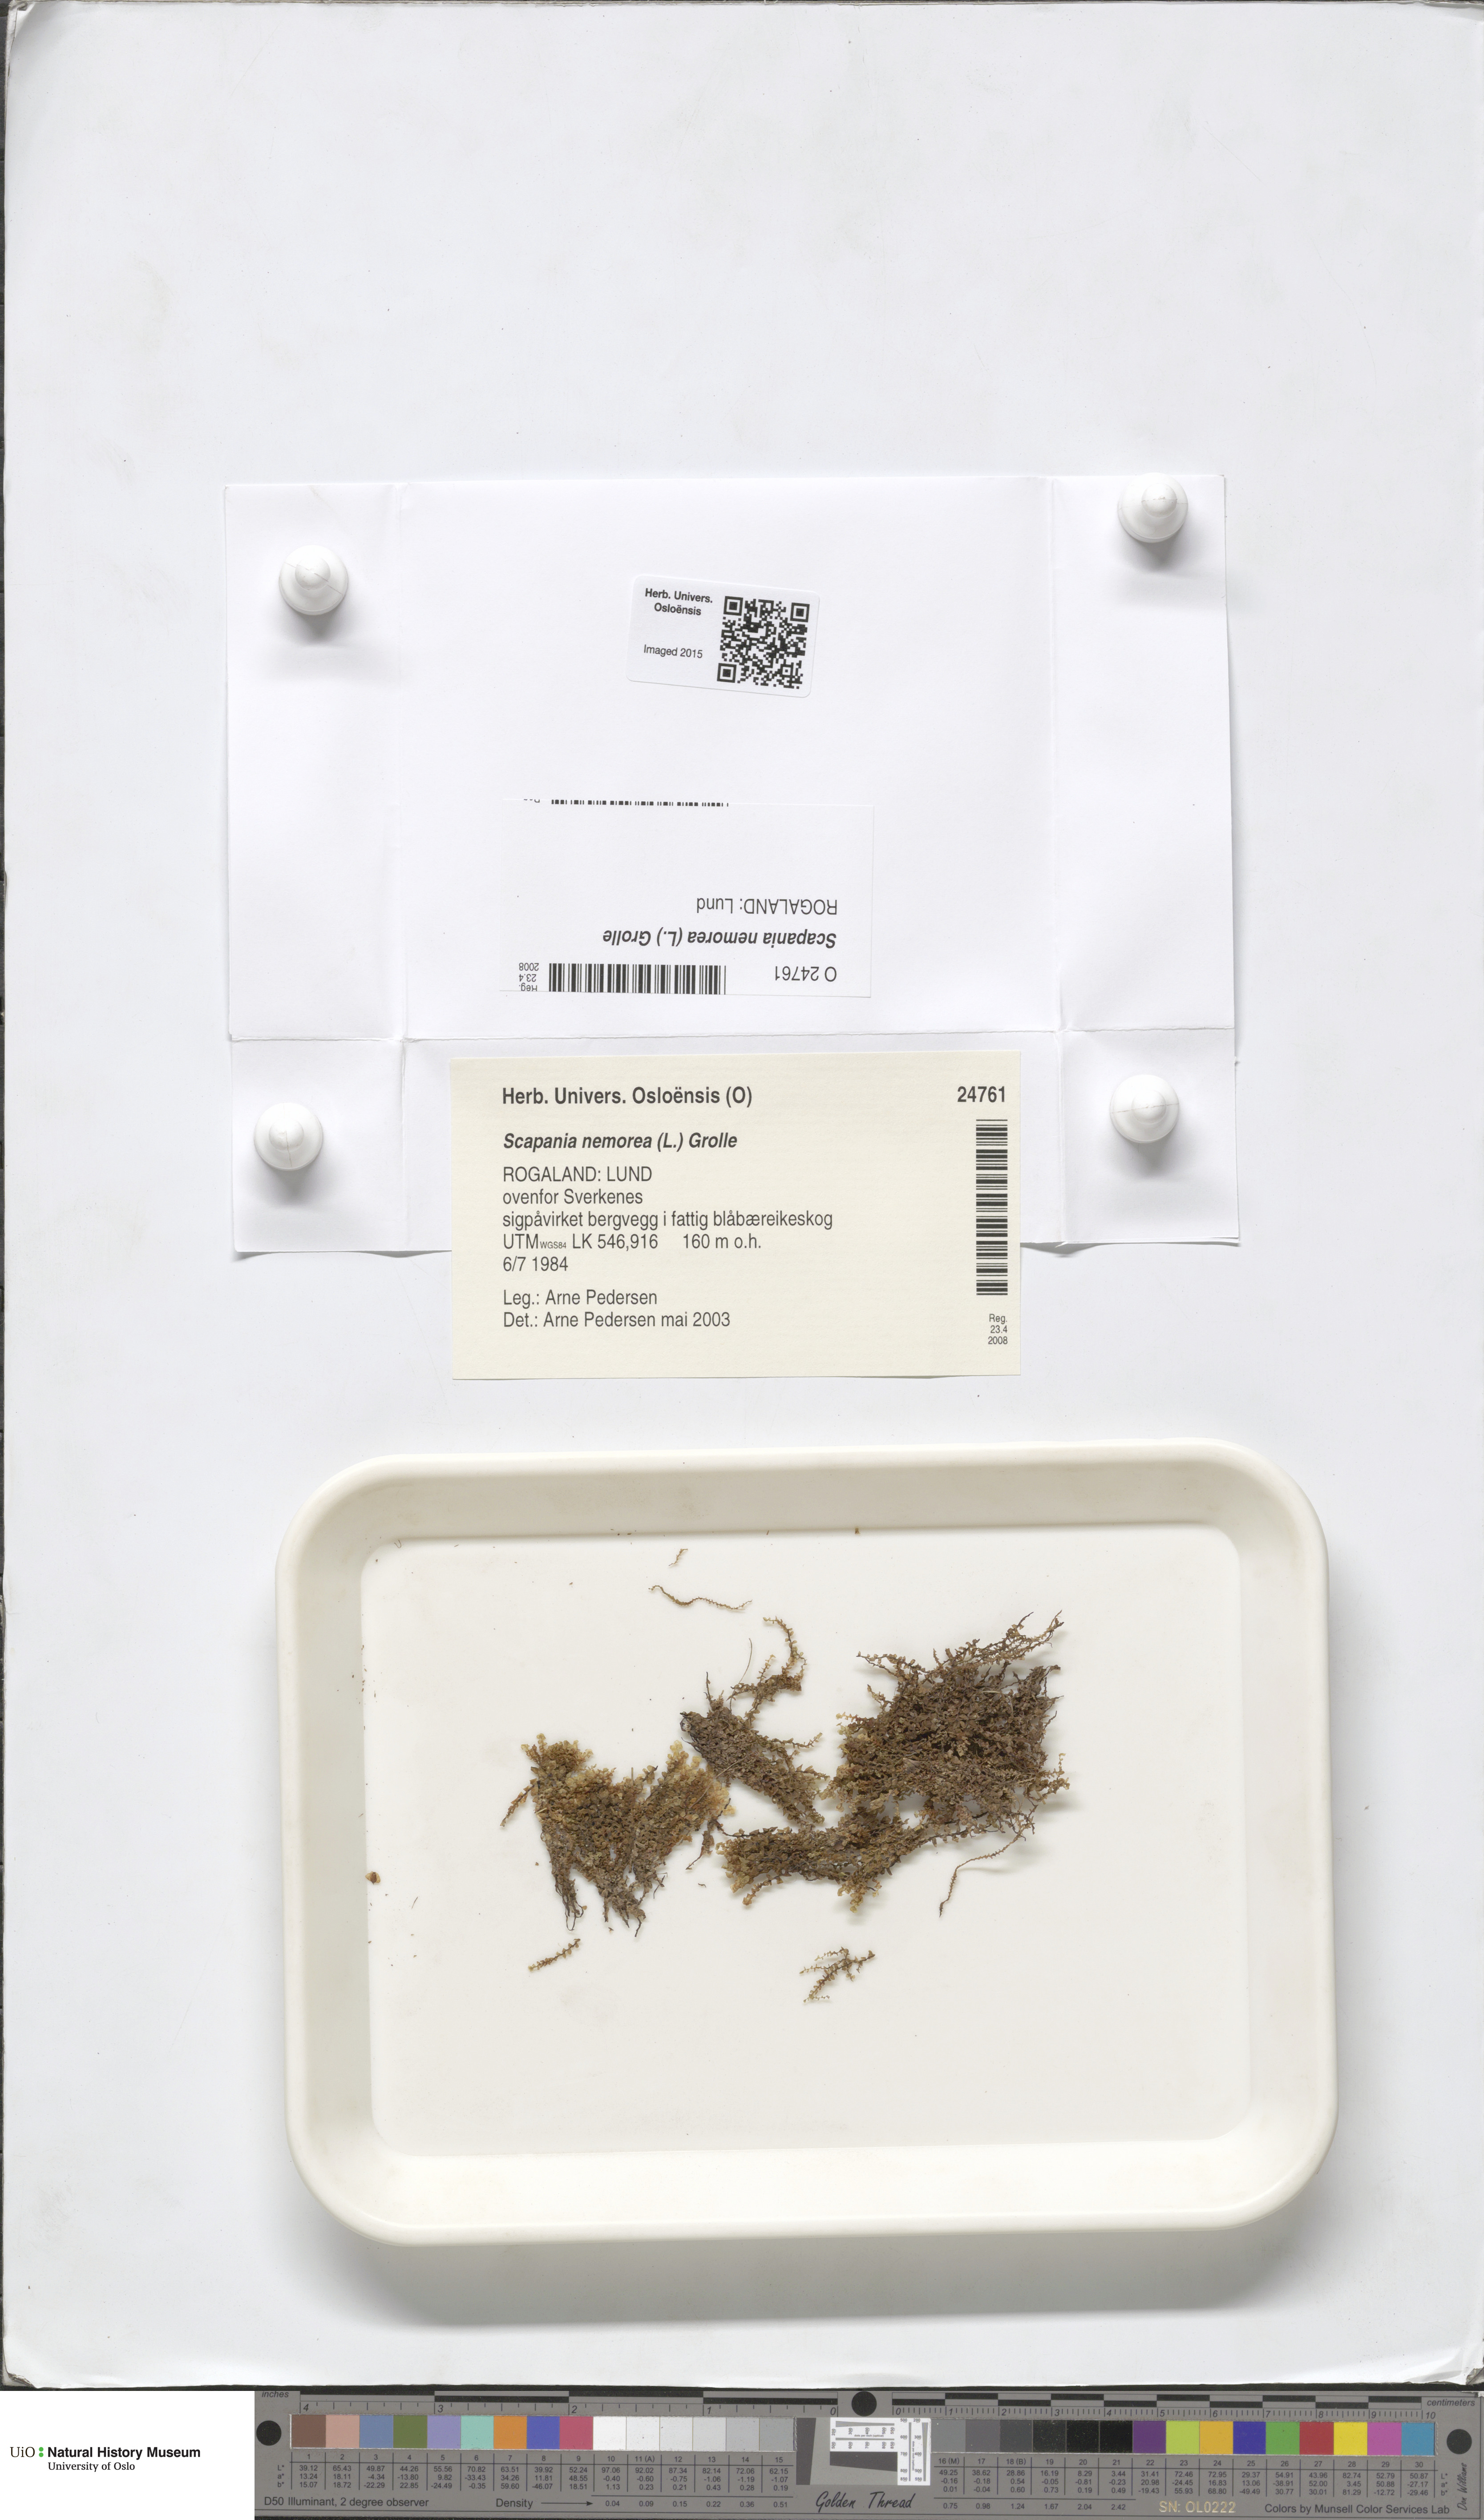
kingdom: Plantae
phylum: Marchantiophyta
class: Jungermanniopsida
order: Jungermanniales
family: Scapaniaceae
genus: Scapania
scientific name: Scapania nemorea
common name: Grove earwort
